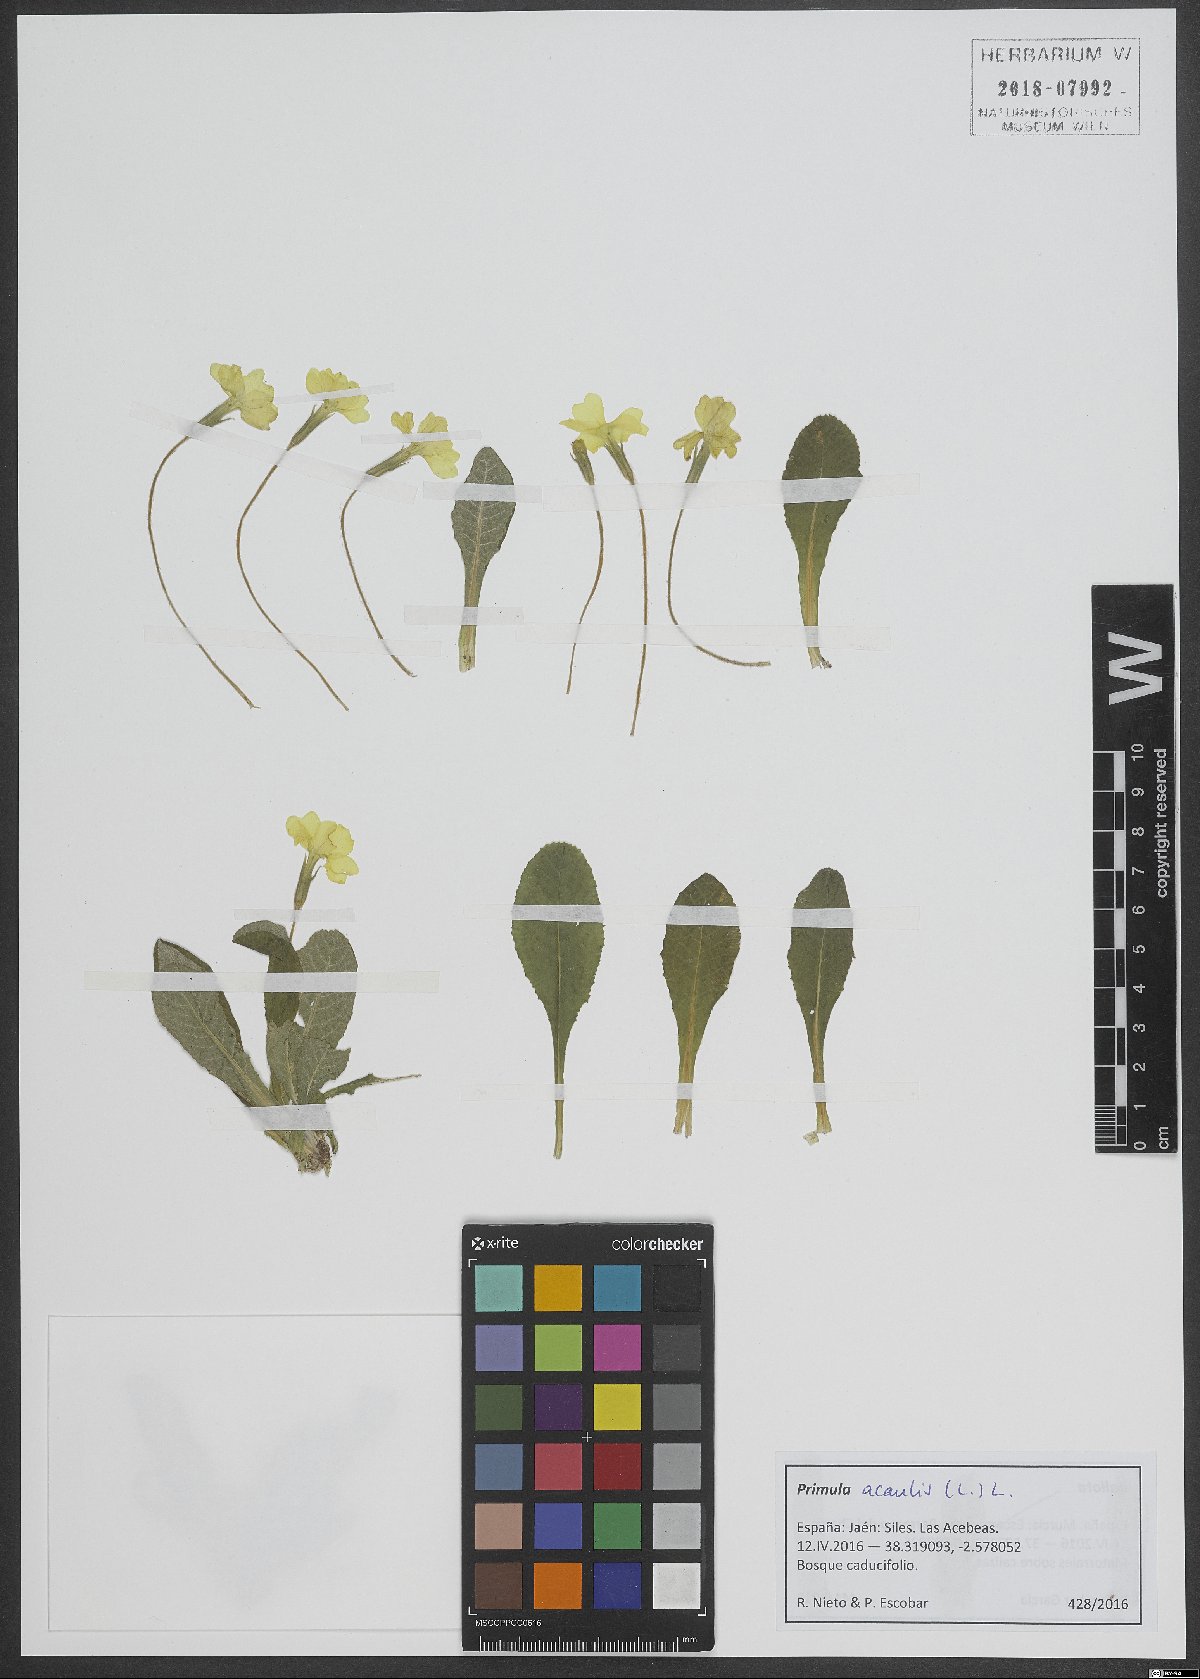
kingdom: Plantae
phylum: Tracheophyta
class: Magnoliopsida
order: Ericales
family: Primulaceae
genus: Primula
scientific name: Primula vulgaris
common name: Primrose
